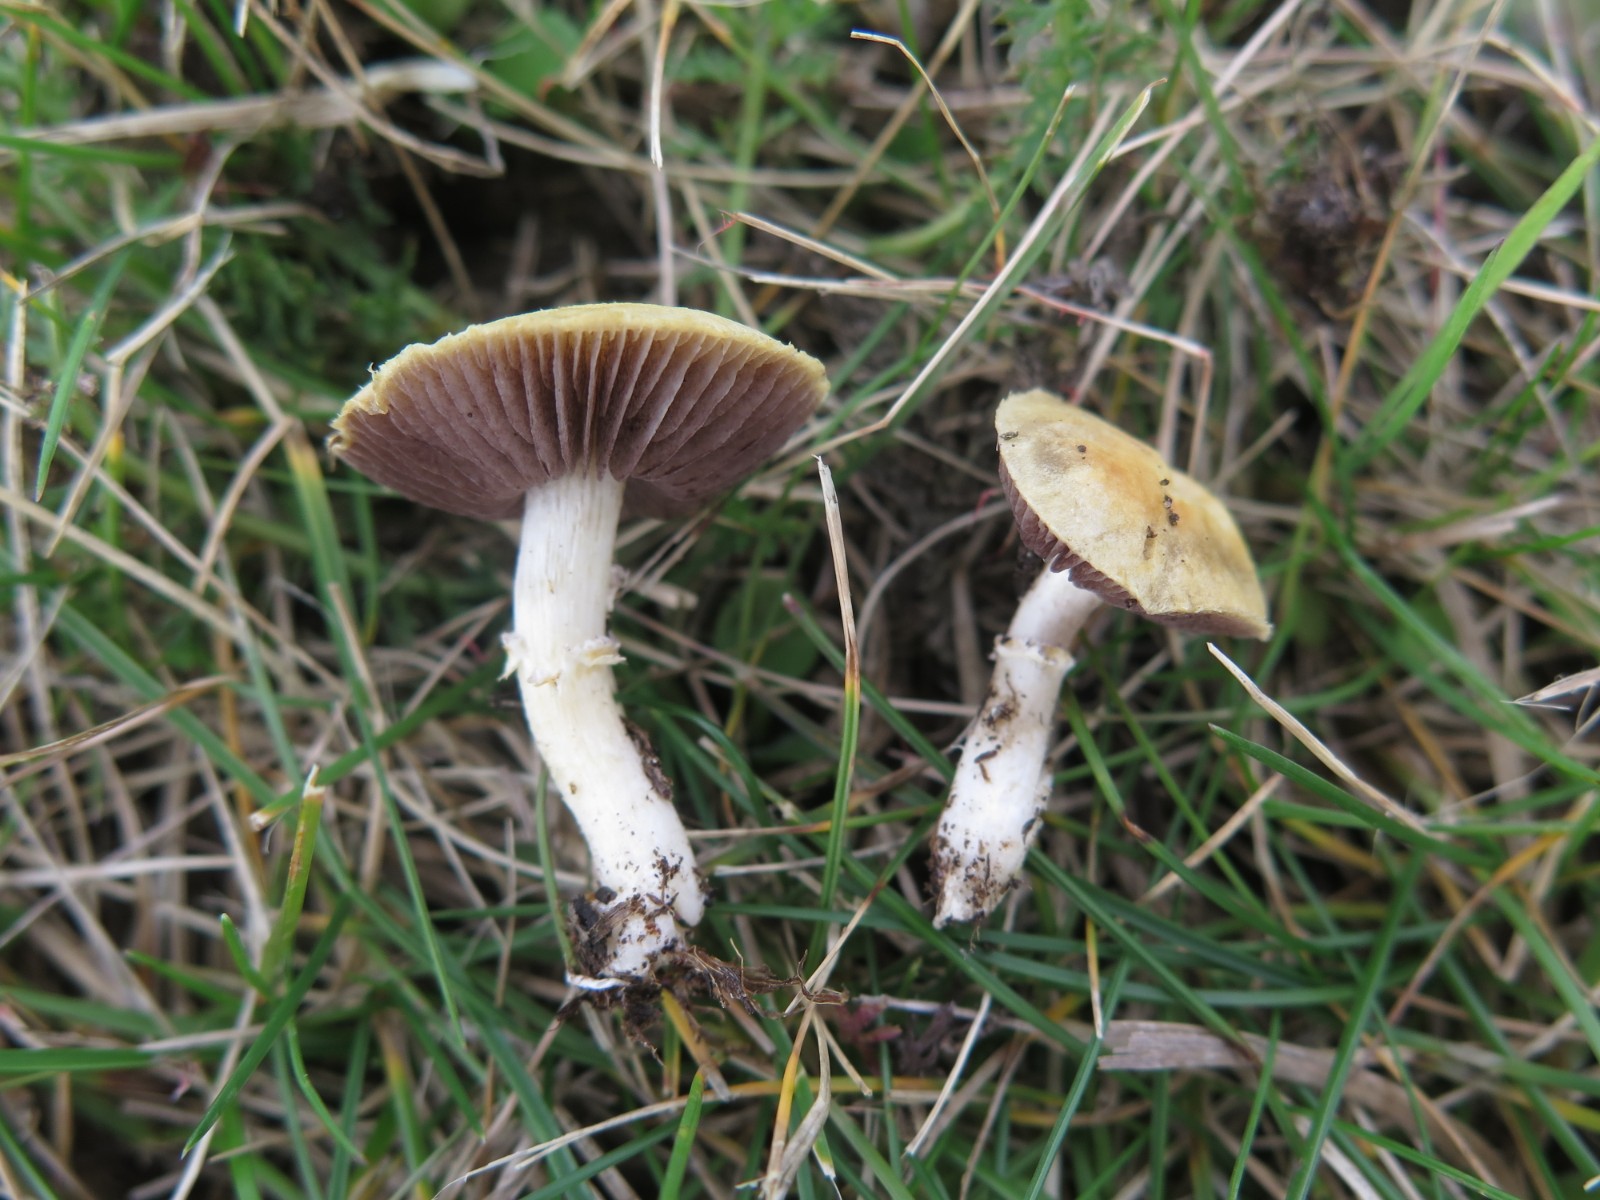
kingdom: Fungi
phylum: Basidiomycota
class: Agaricomycetes
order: Agaricales
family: Hymenogastraceae
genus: Psilocybe
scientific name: Psilocybe coronilla
